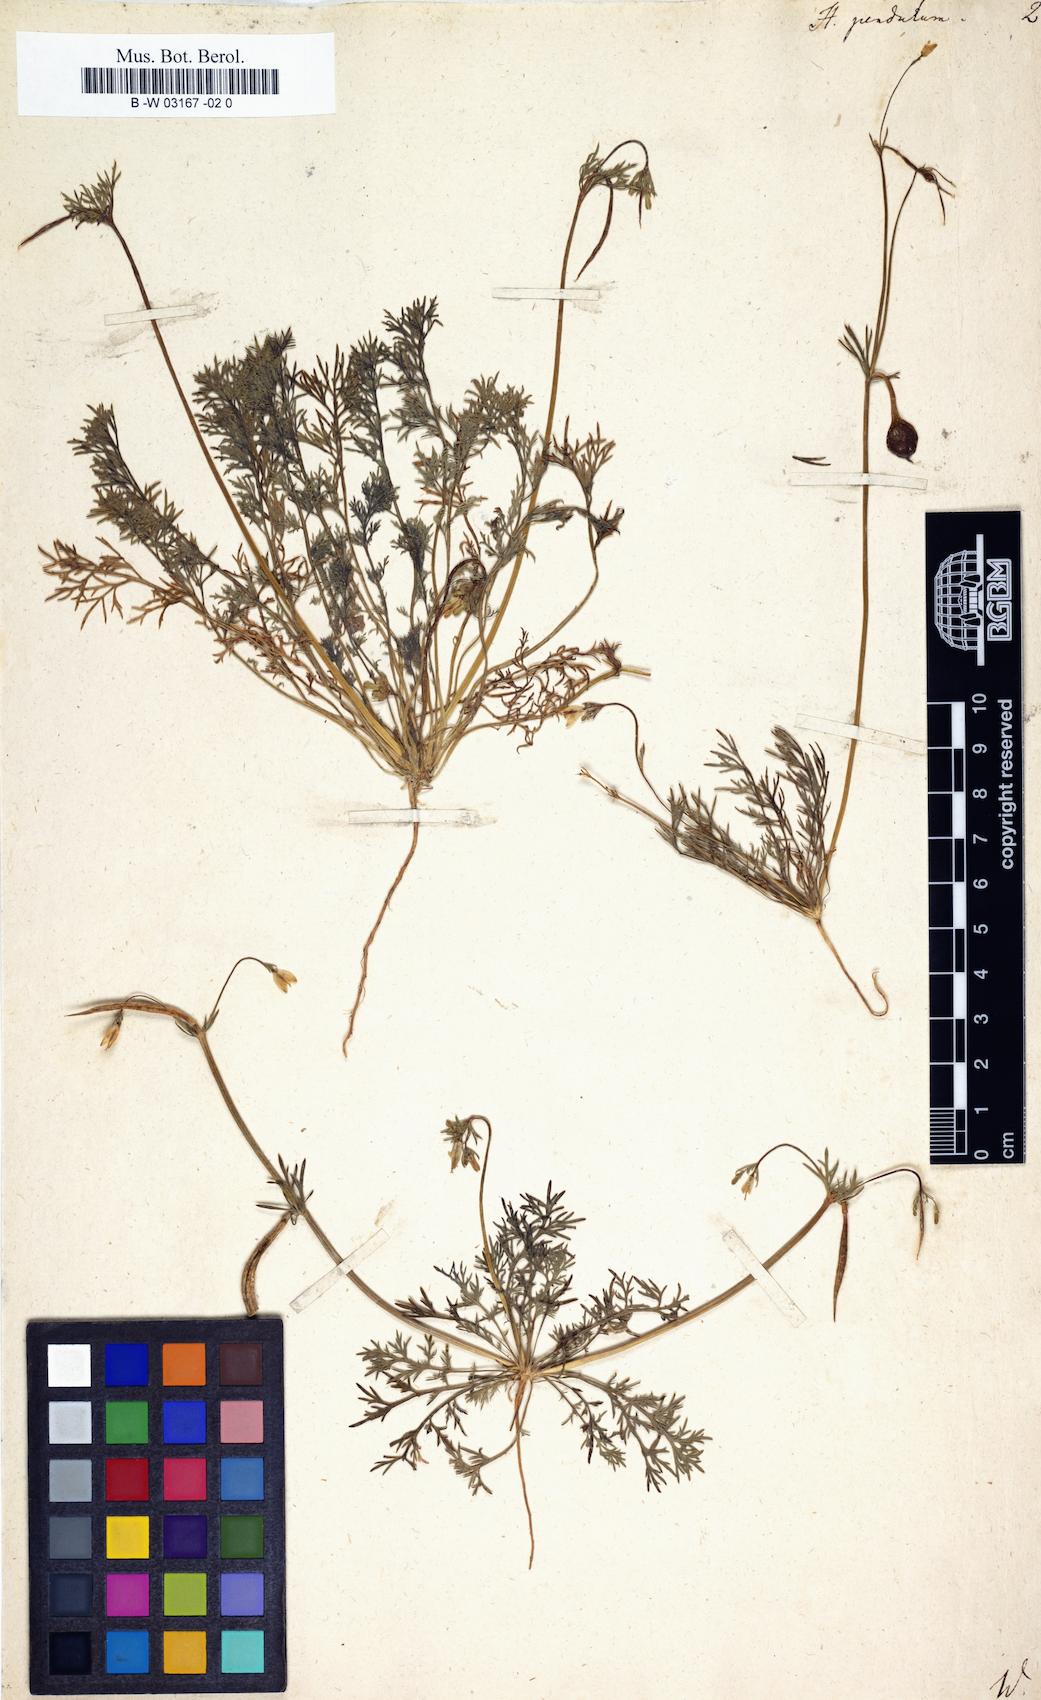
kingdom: Plantae
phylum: Tracheophyta
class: Magnoliopsida
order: Ranunculales
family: Papaveraceae
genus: Hypecoum
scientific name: Hypecoum pendulum
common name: Nodding hypecoum
